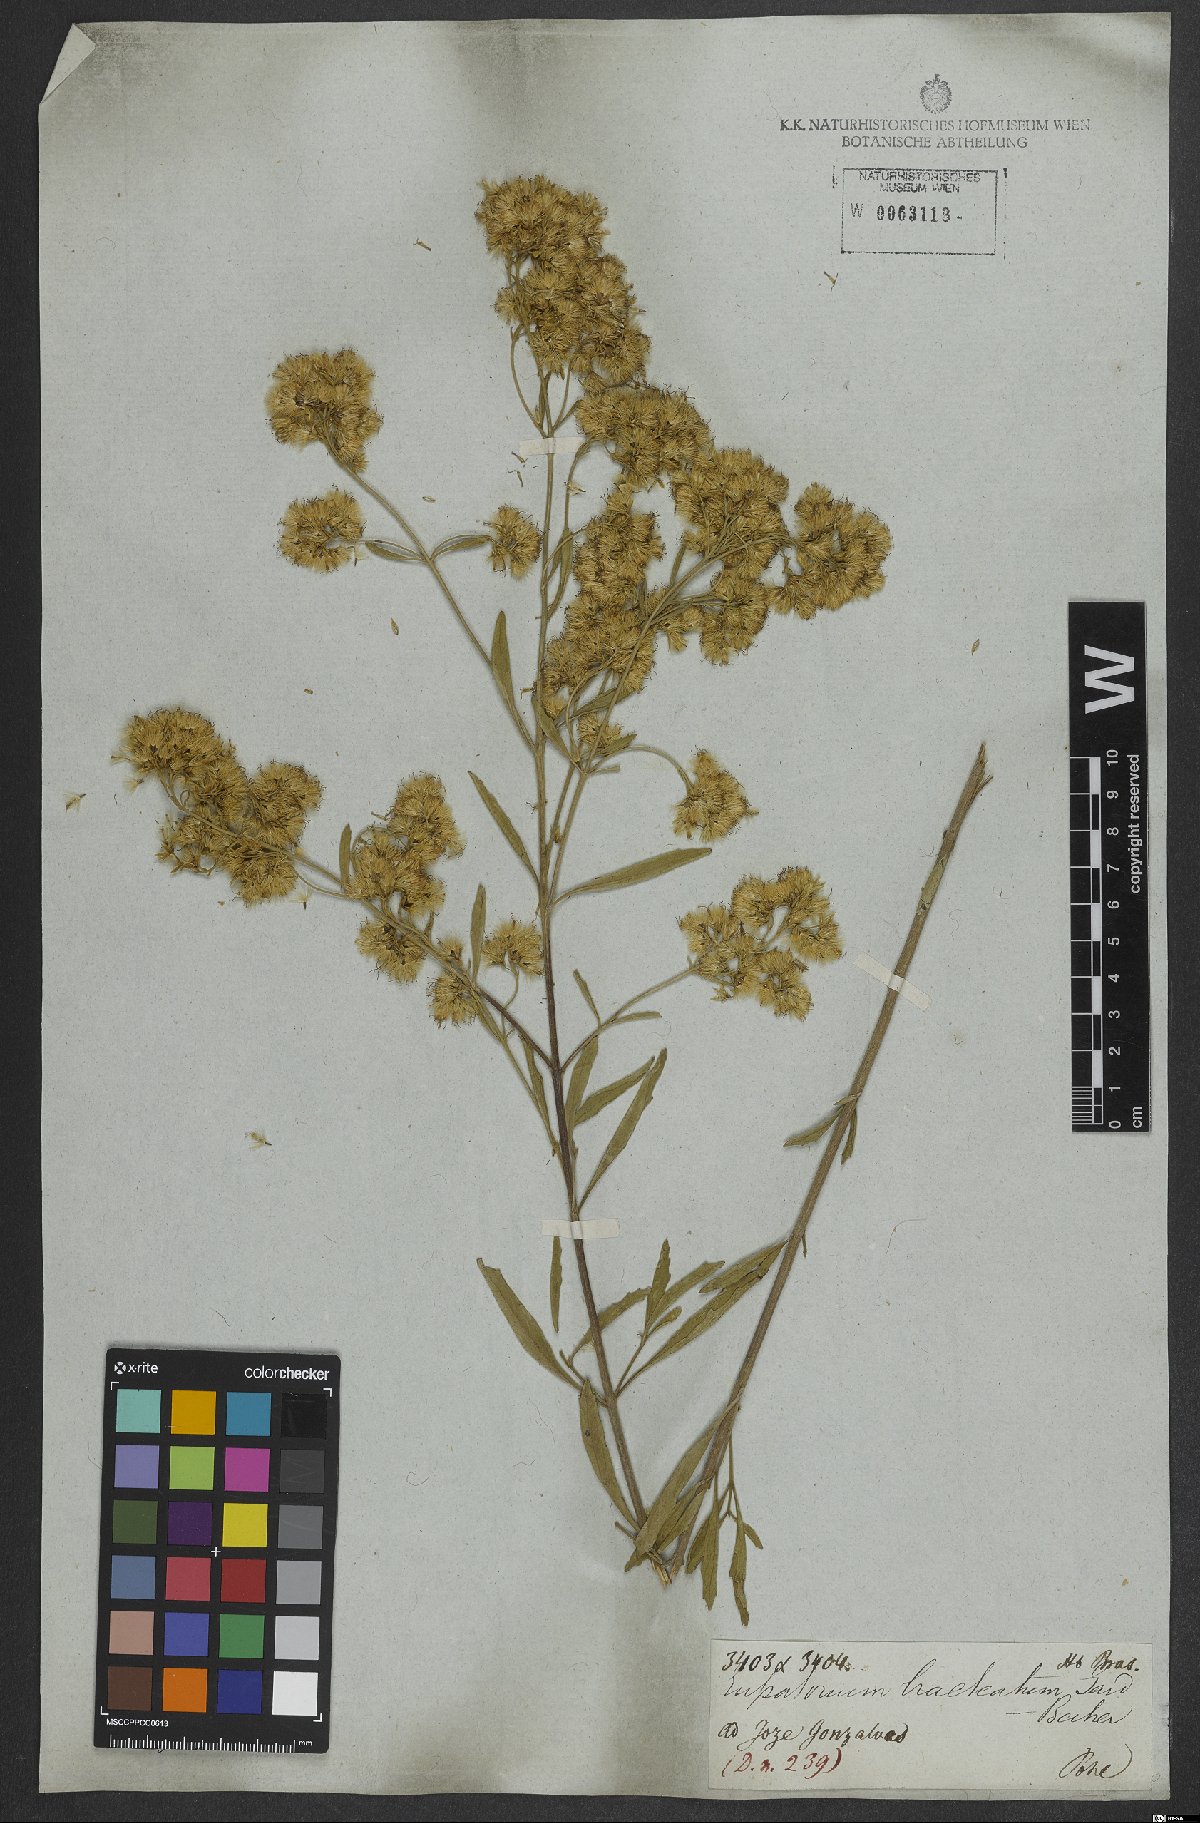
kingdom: Plantae
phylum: Tracheophyta
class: Magnoliopsida
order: Asterales
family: Asteraceae
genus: Stomatanthes
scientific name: Stomatanthes pernambucensis
